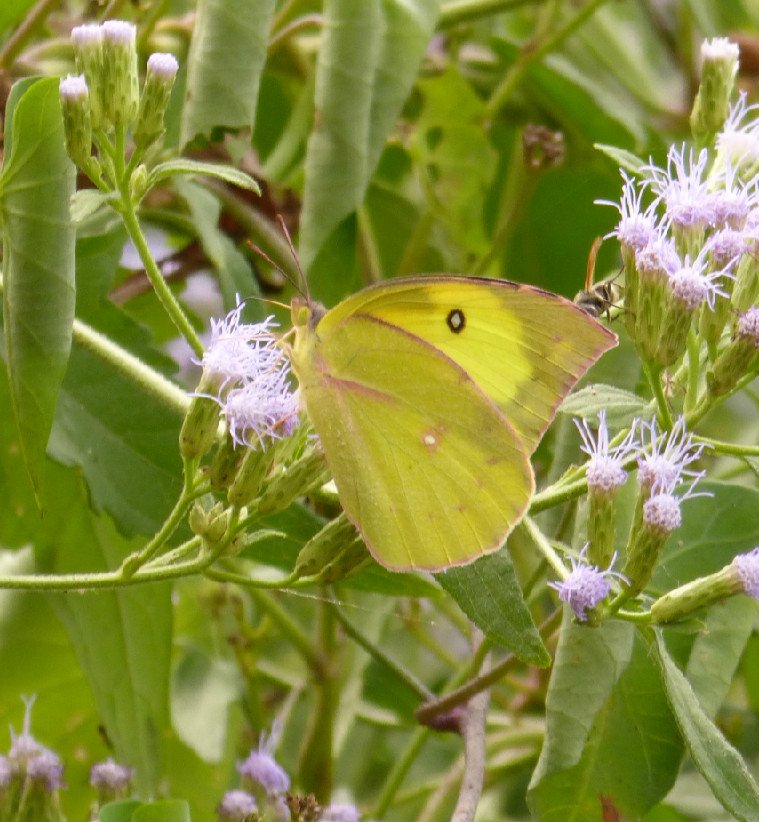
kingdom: Animalia
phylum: Arthropoda
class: Insecta
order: Lepidoptera
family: Pieridae
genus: Zerene
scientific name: Zerene cesonia
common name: Southern Dogface
